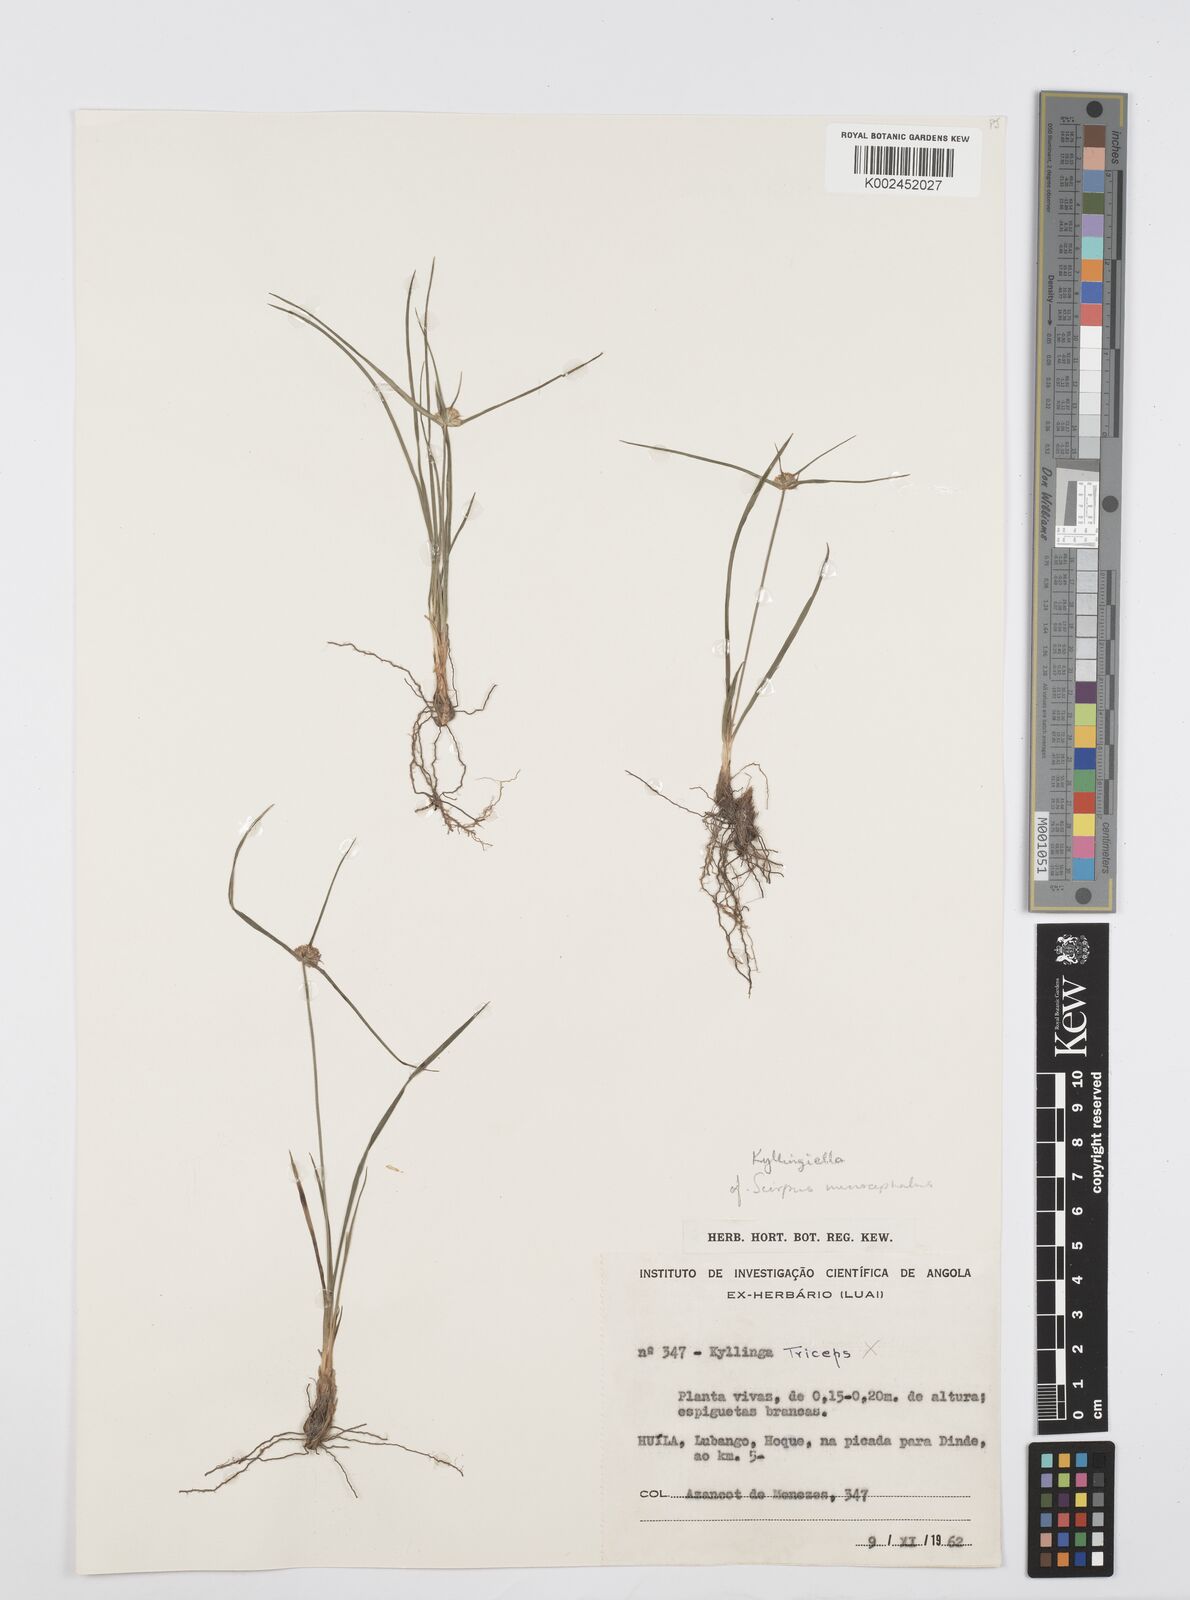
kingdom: Plantae
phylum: Tracheophyta
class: Liliopsida
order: Poales
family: Cyperaceae
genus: Cyperus
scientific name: Cyperus microcephalus
